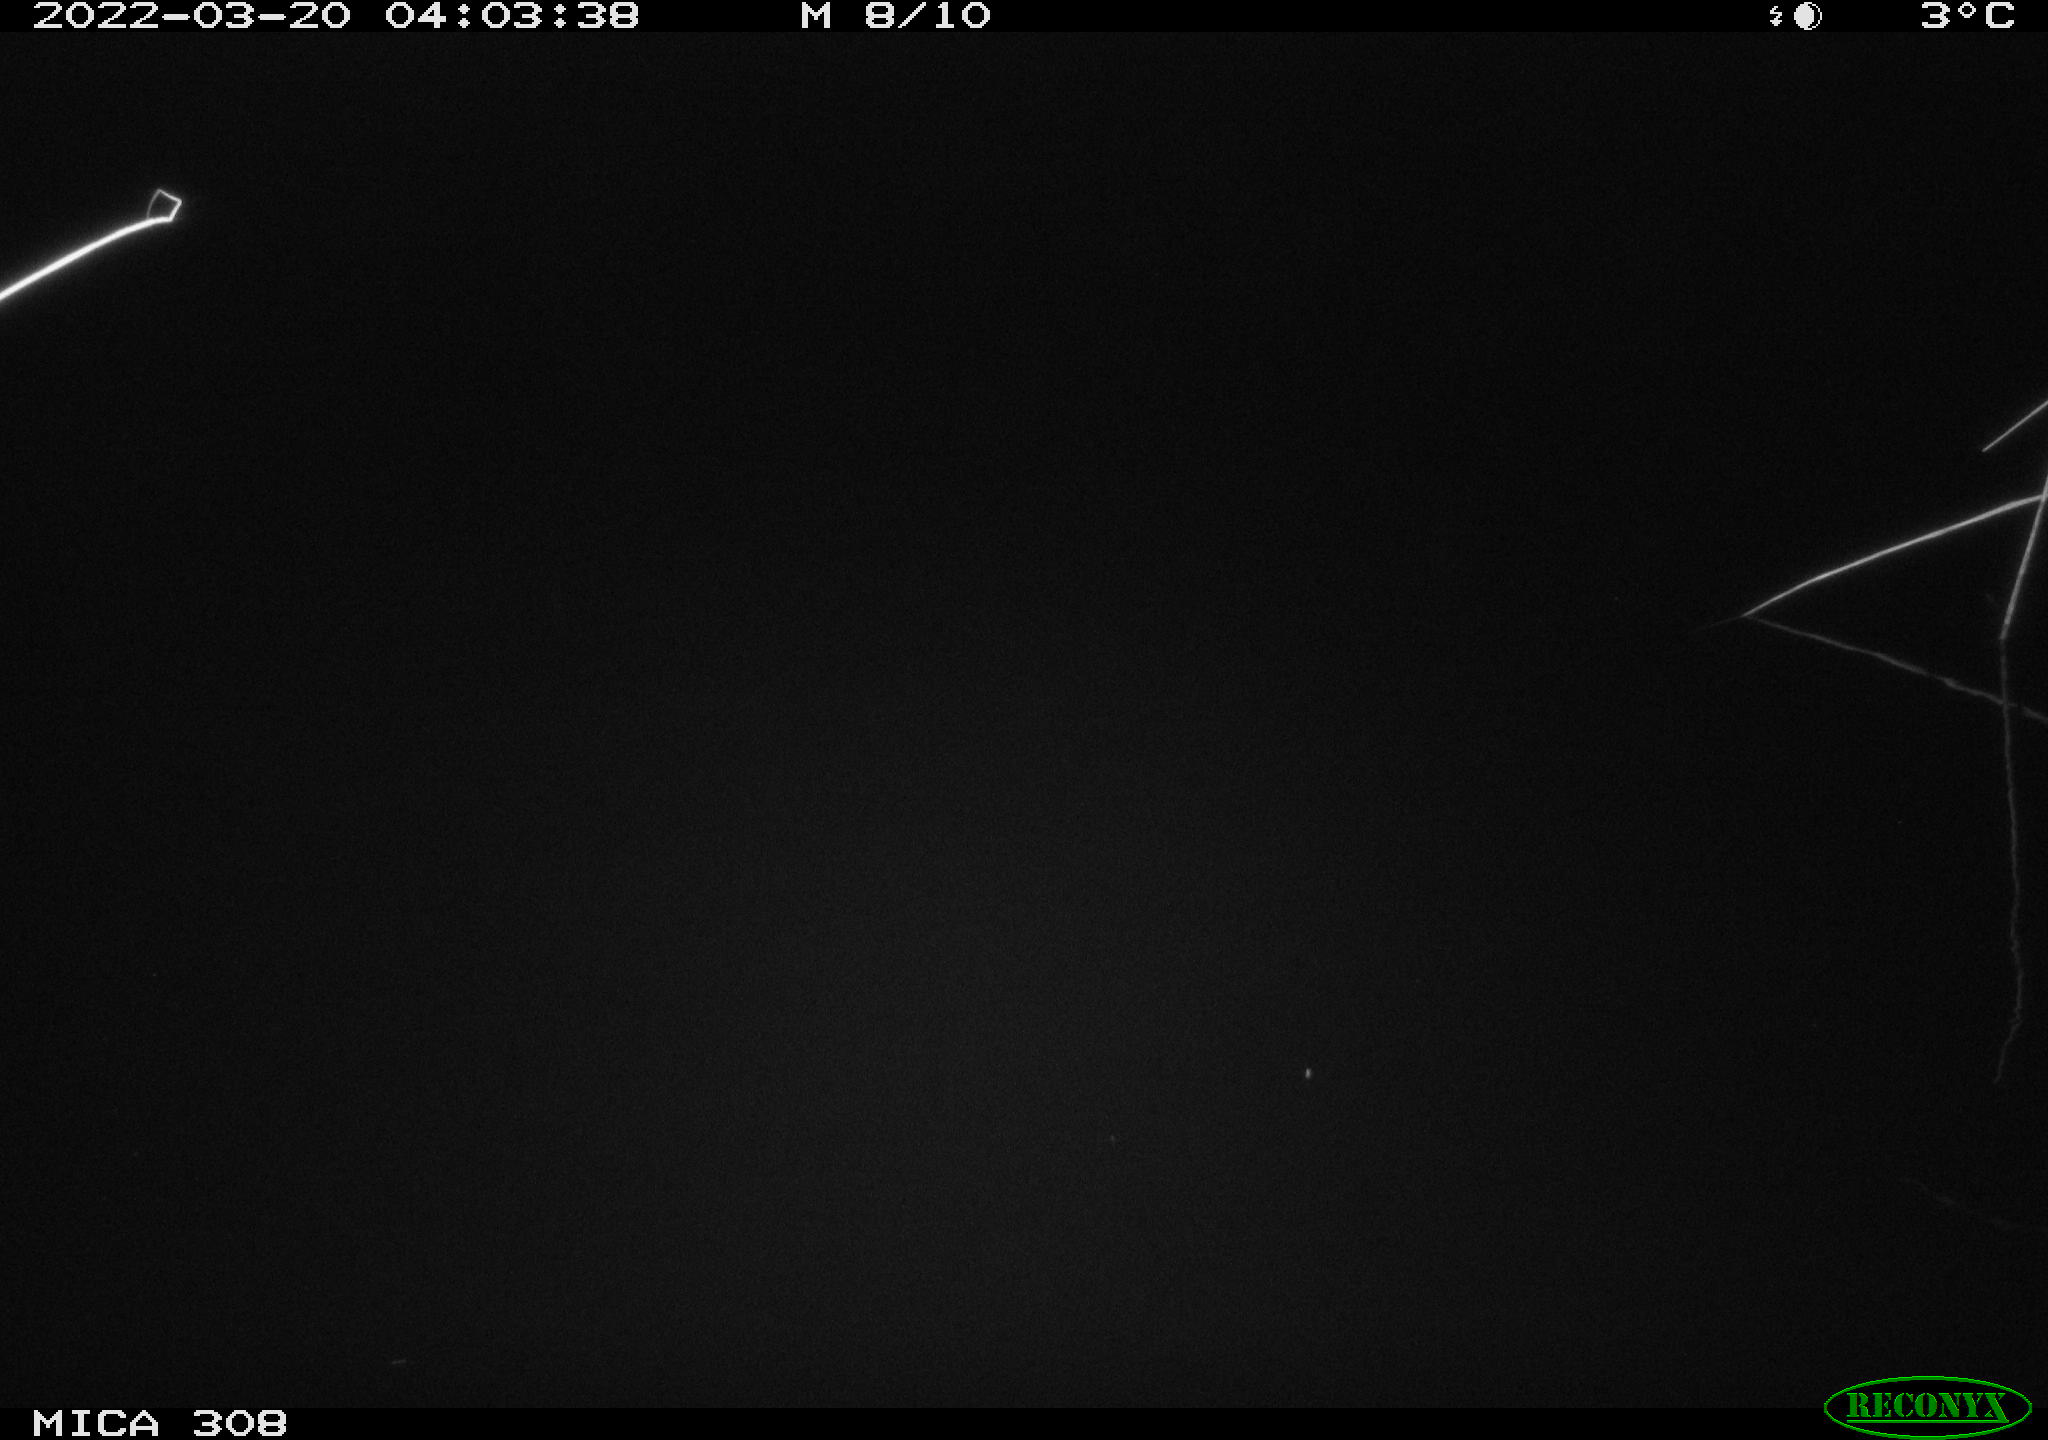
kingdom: Animalia
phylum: Chordata
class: Mammalia
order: Rodentia
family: Cricetidae
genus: Ondatra
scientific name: Ondatra zibethicus
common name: Muskrat
